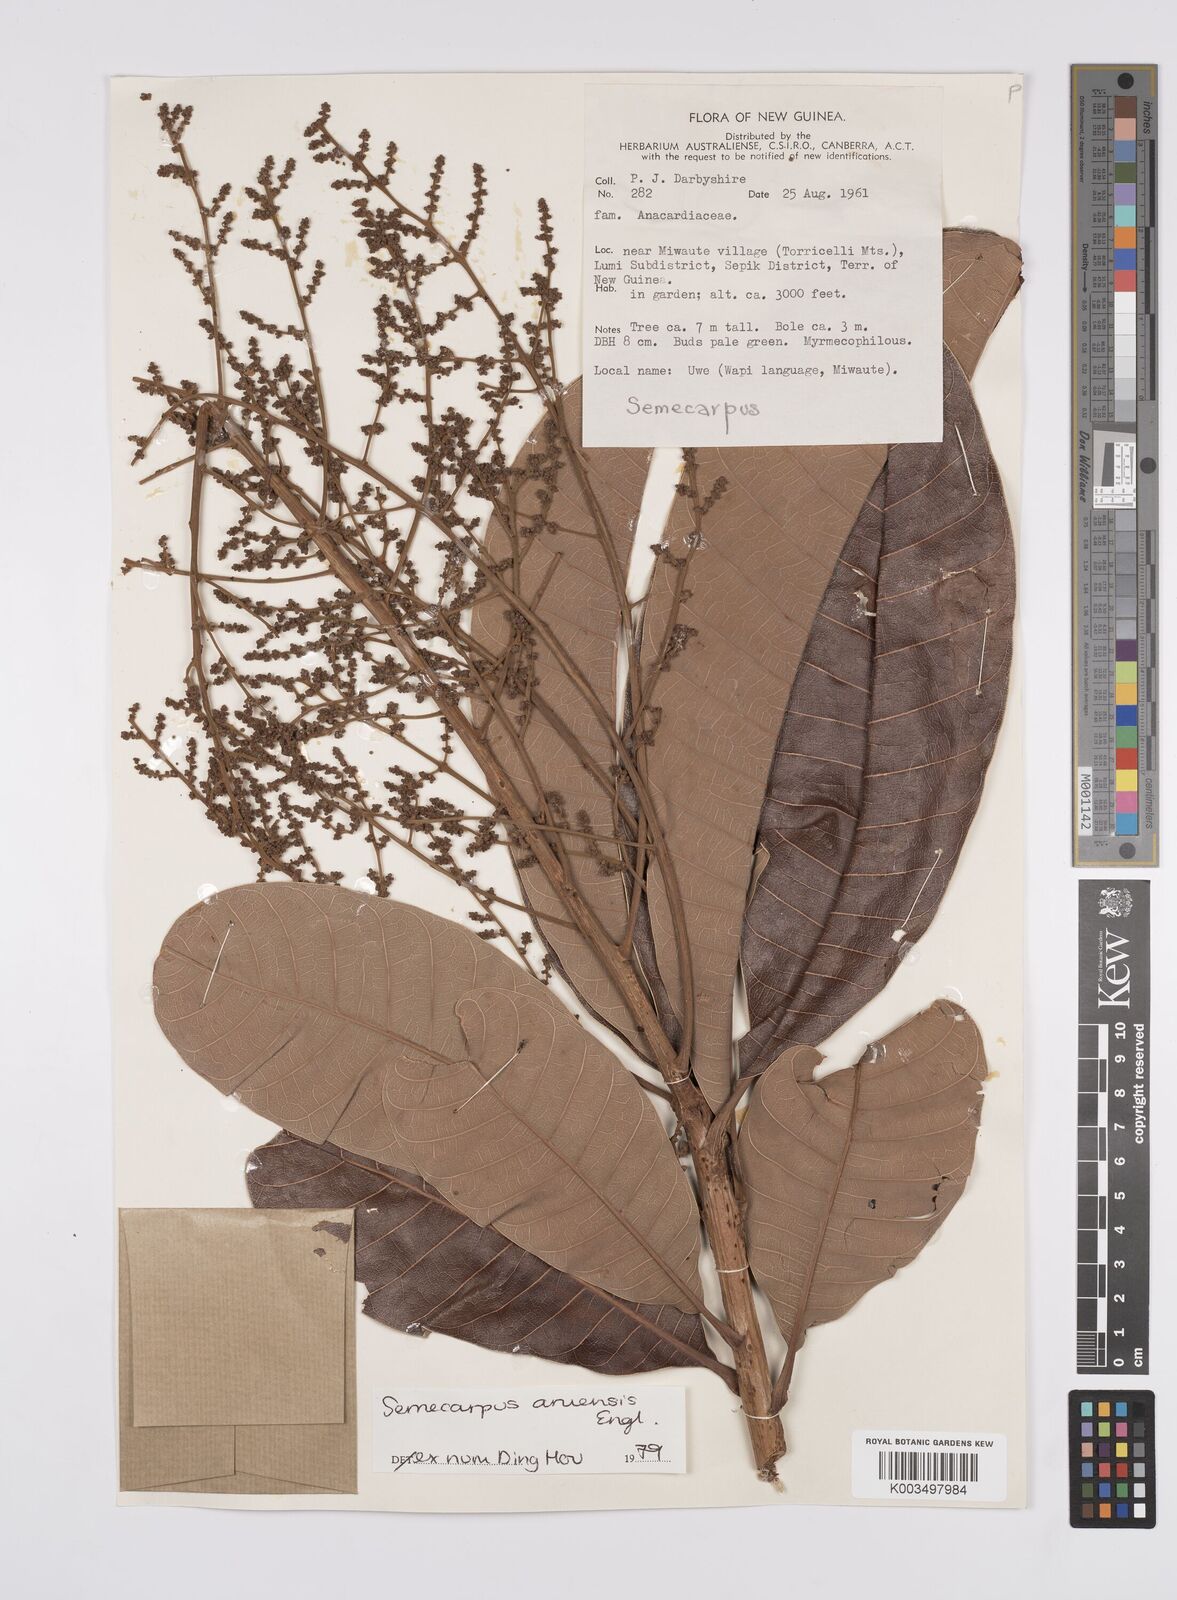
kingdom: Plantae
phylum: Tracheophyta
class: Magnoliopsida
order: Sapindales
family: Anacardiaceae
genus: Semecarpus
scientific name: Semecarpus aruensis
